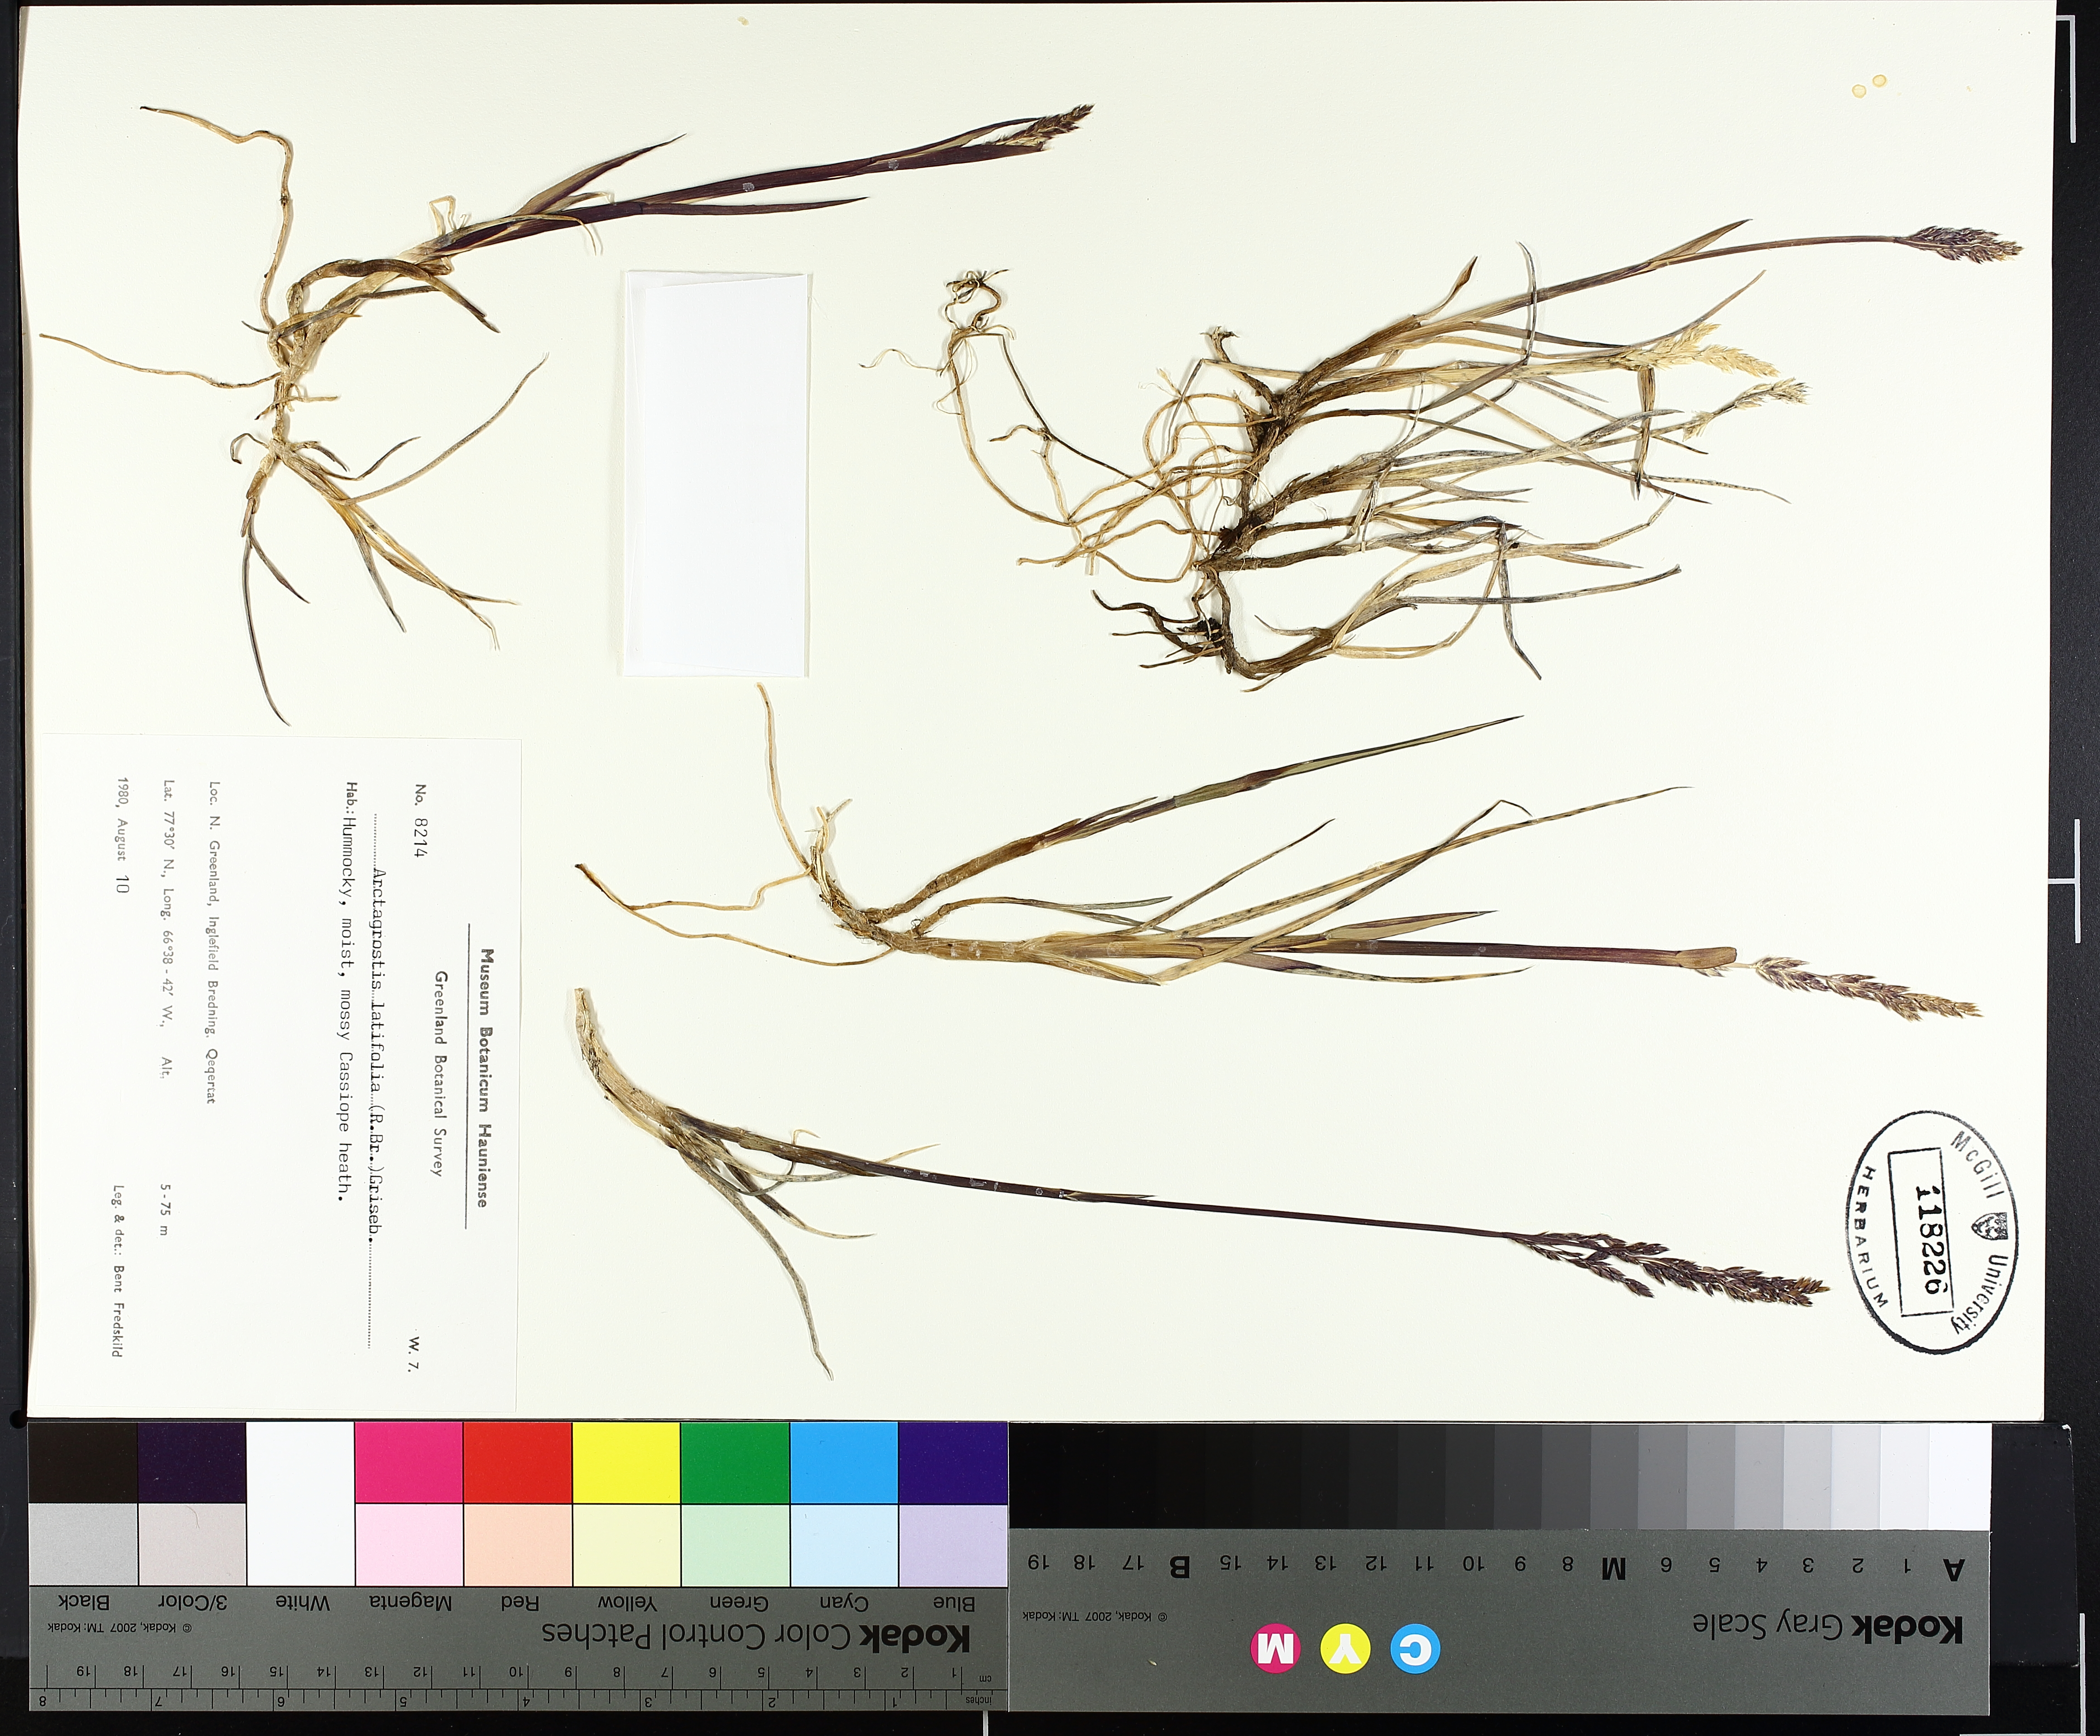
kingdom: Plantae
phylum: Tracheophyta
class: Liliopsida
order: Poales
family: Poaceae
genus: Arctagrostis
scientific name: Arctagrostis latifolia
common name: Arctic grass
